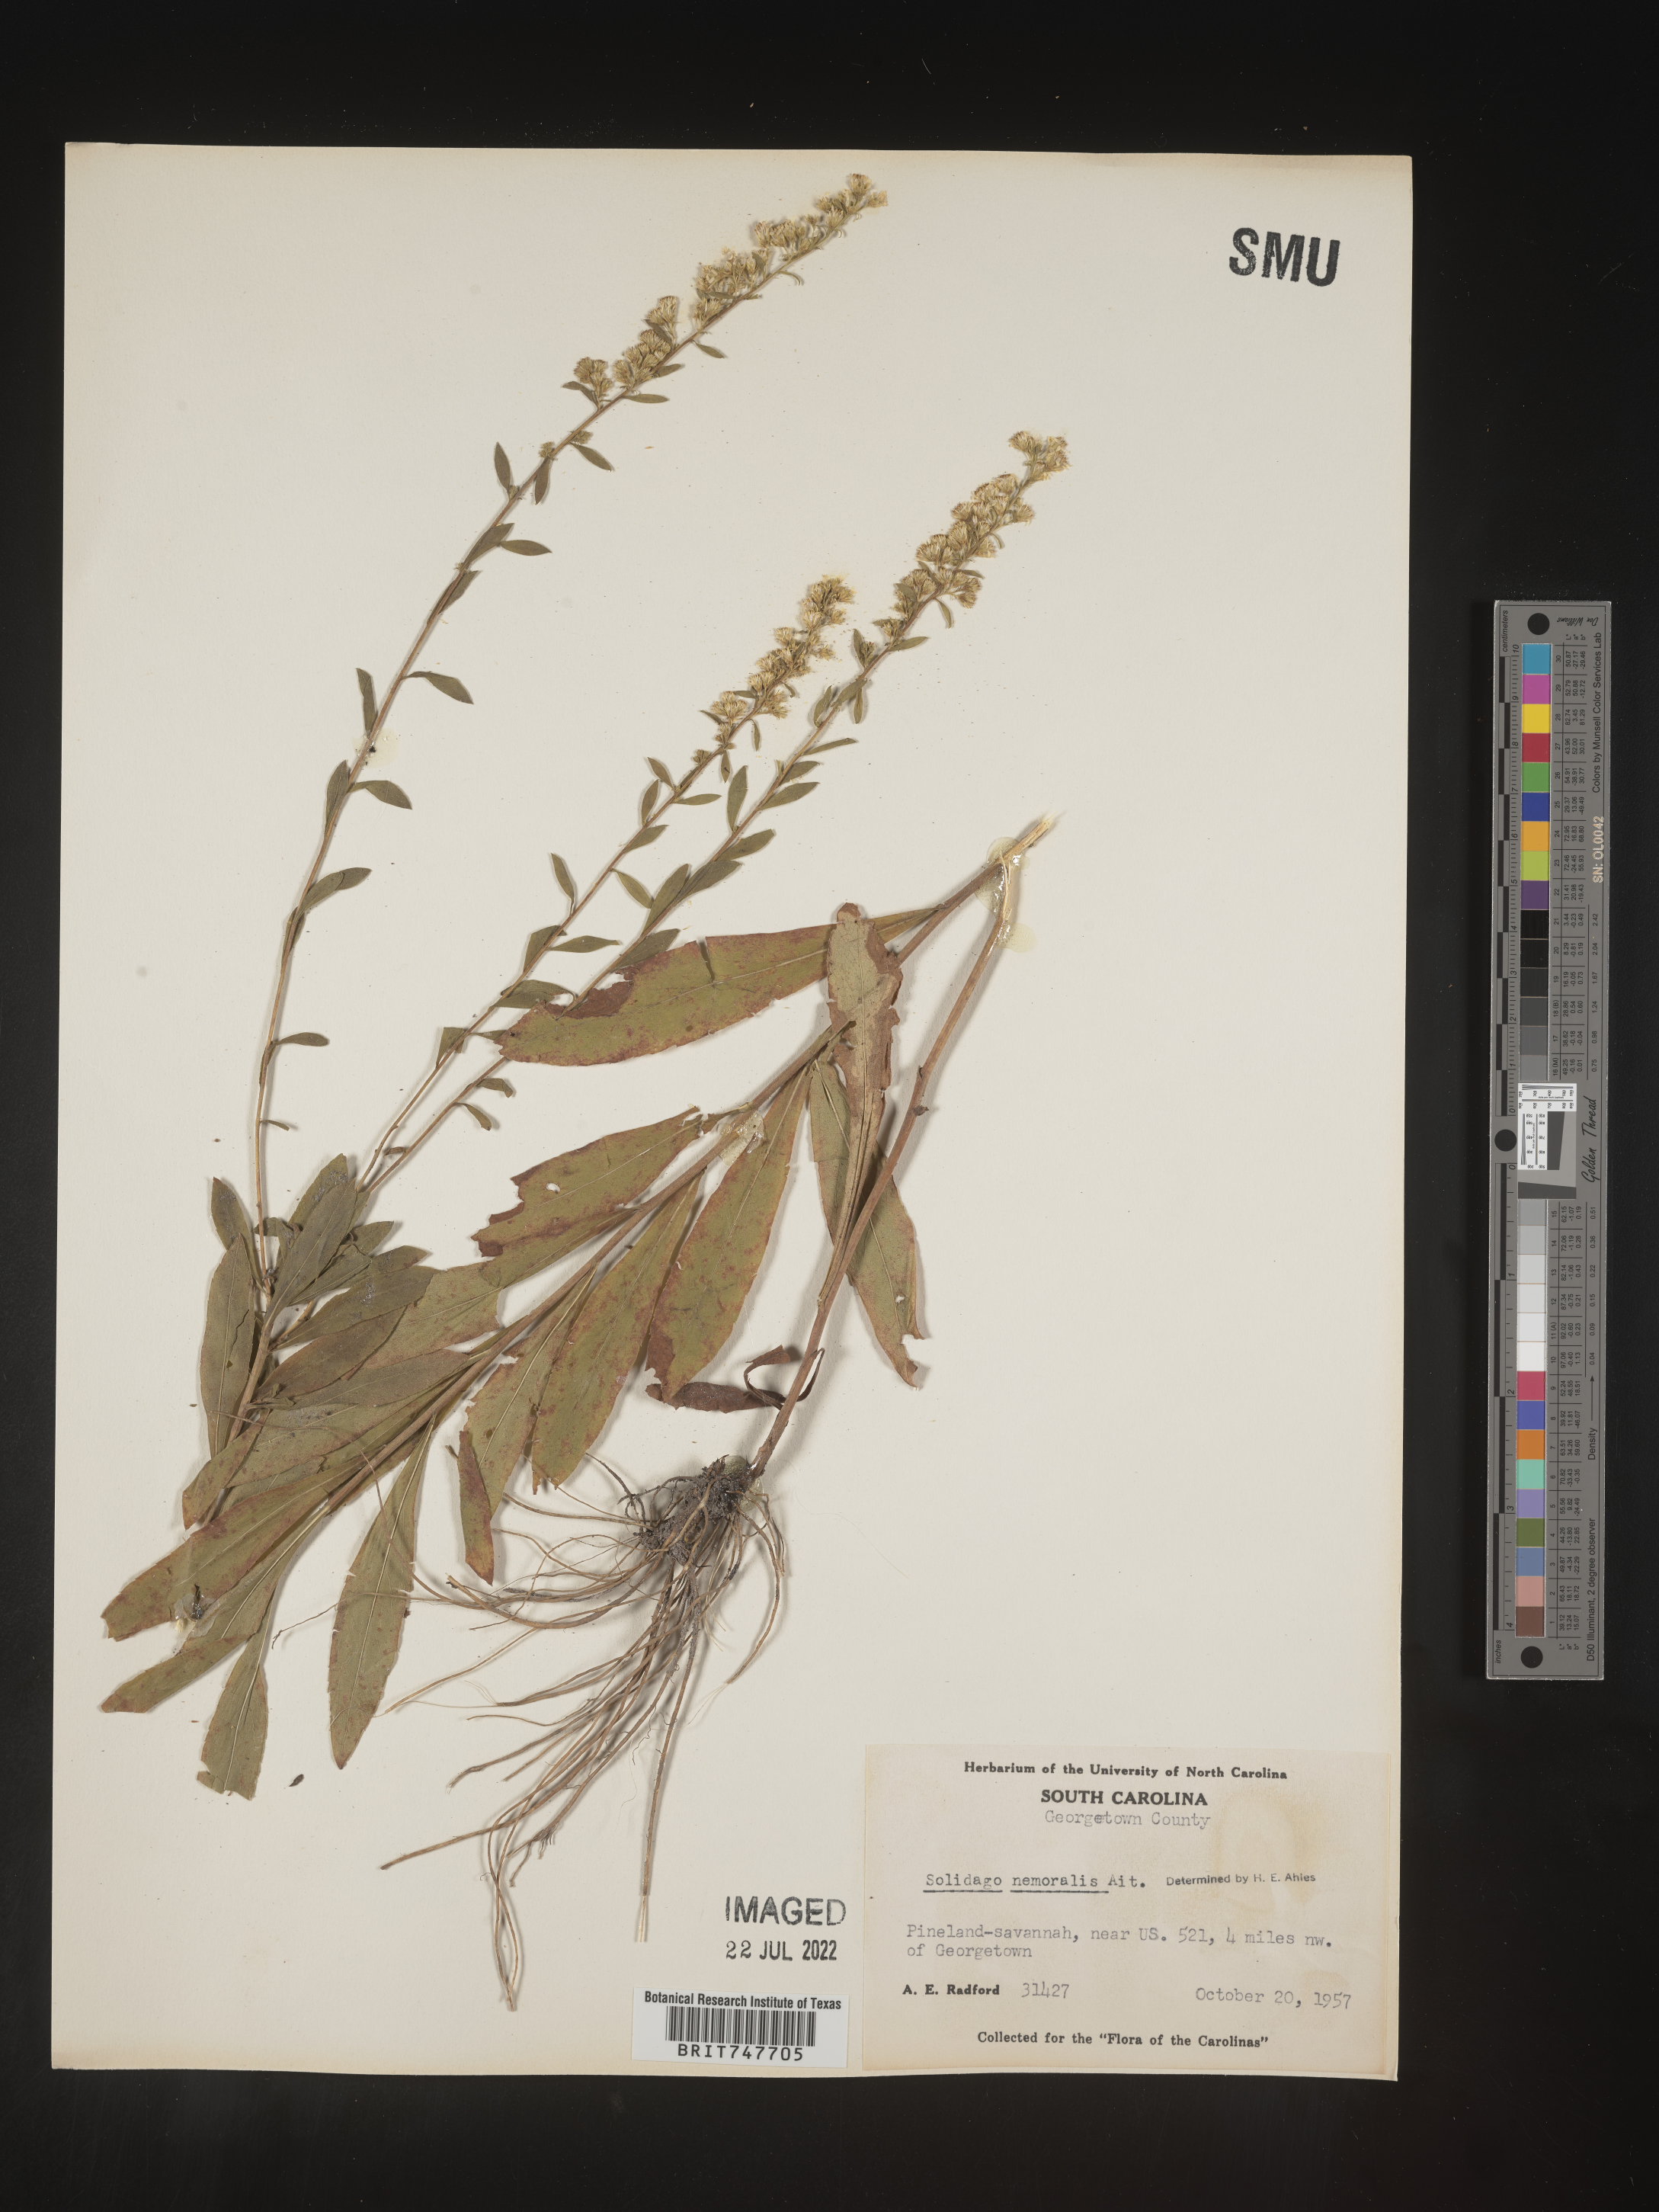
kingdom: Plantae
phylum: Tracheophyta
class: Magnoliopsida
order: Asterales
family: Asteraceae
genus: Solidago
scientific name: Solidago nemoralis
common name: Grey goldenrod
